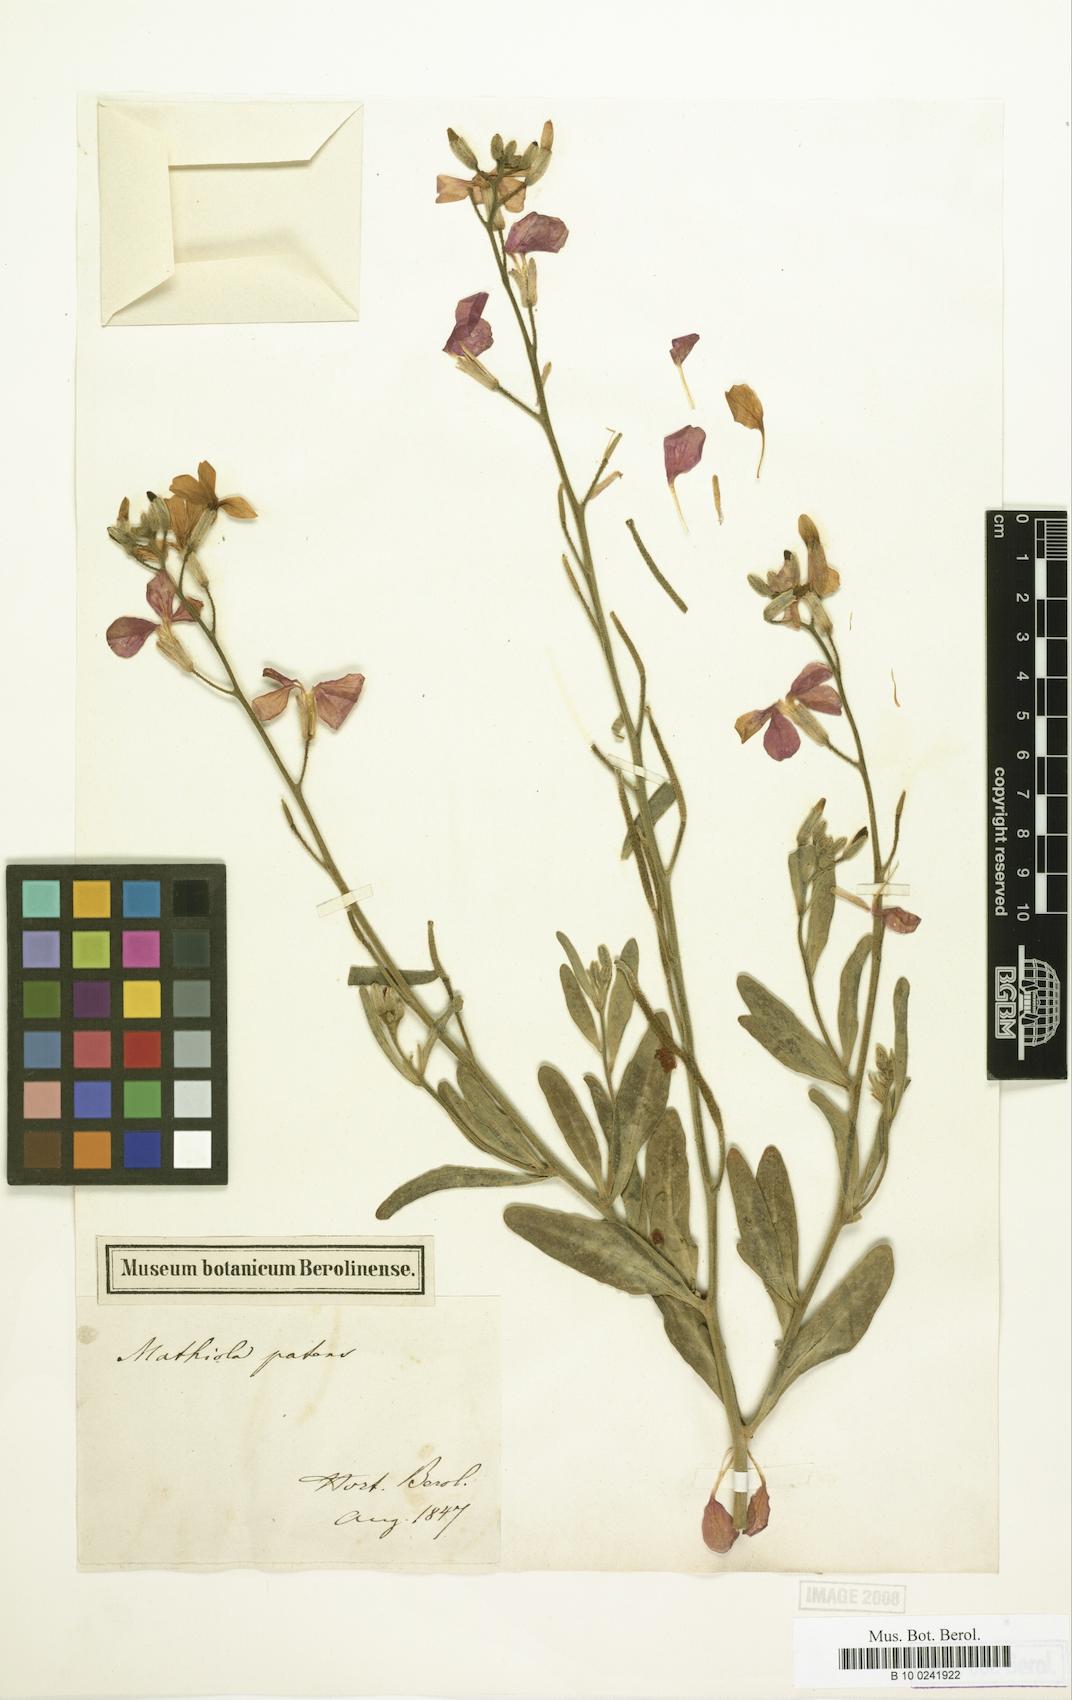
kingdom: Plantae
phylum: Tracheophyta
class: Magnoliopsida
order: Brassicales
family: Brassicaceae
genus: Matthiola
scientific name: Matthiola incana
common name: Hoary stock
